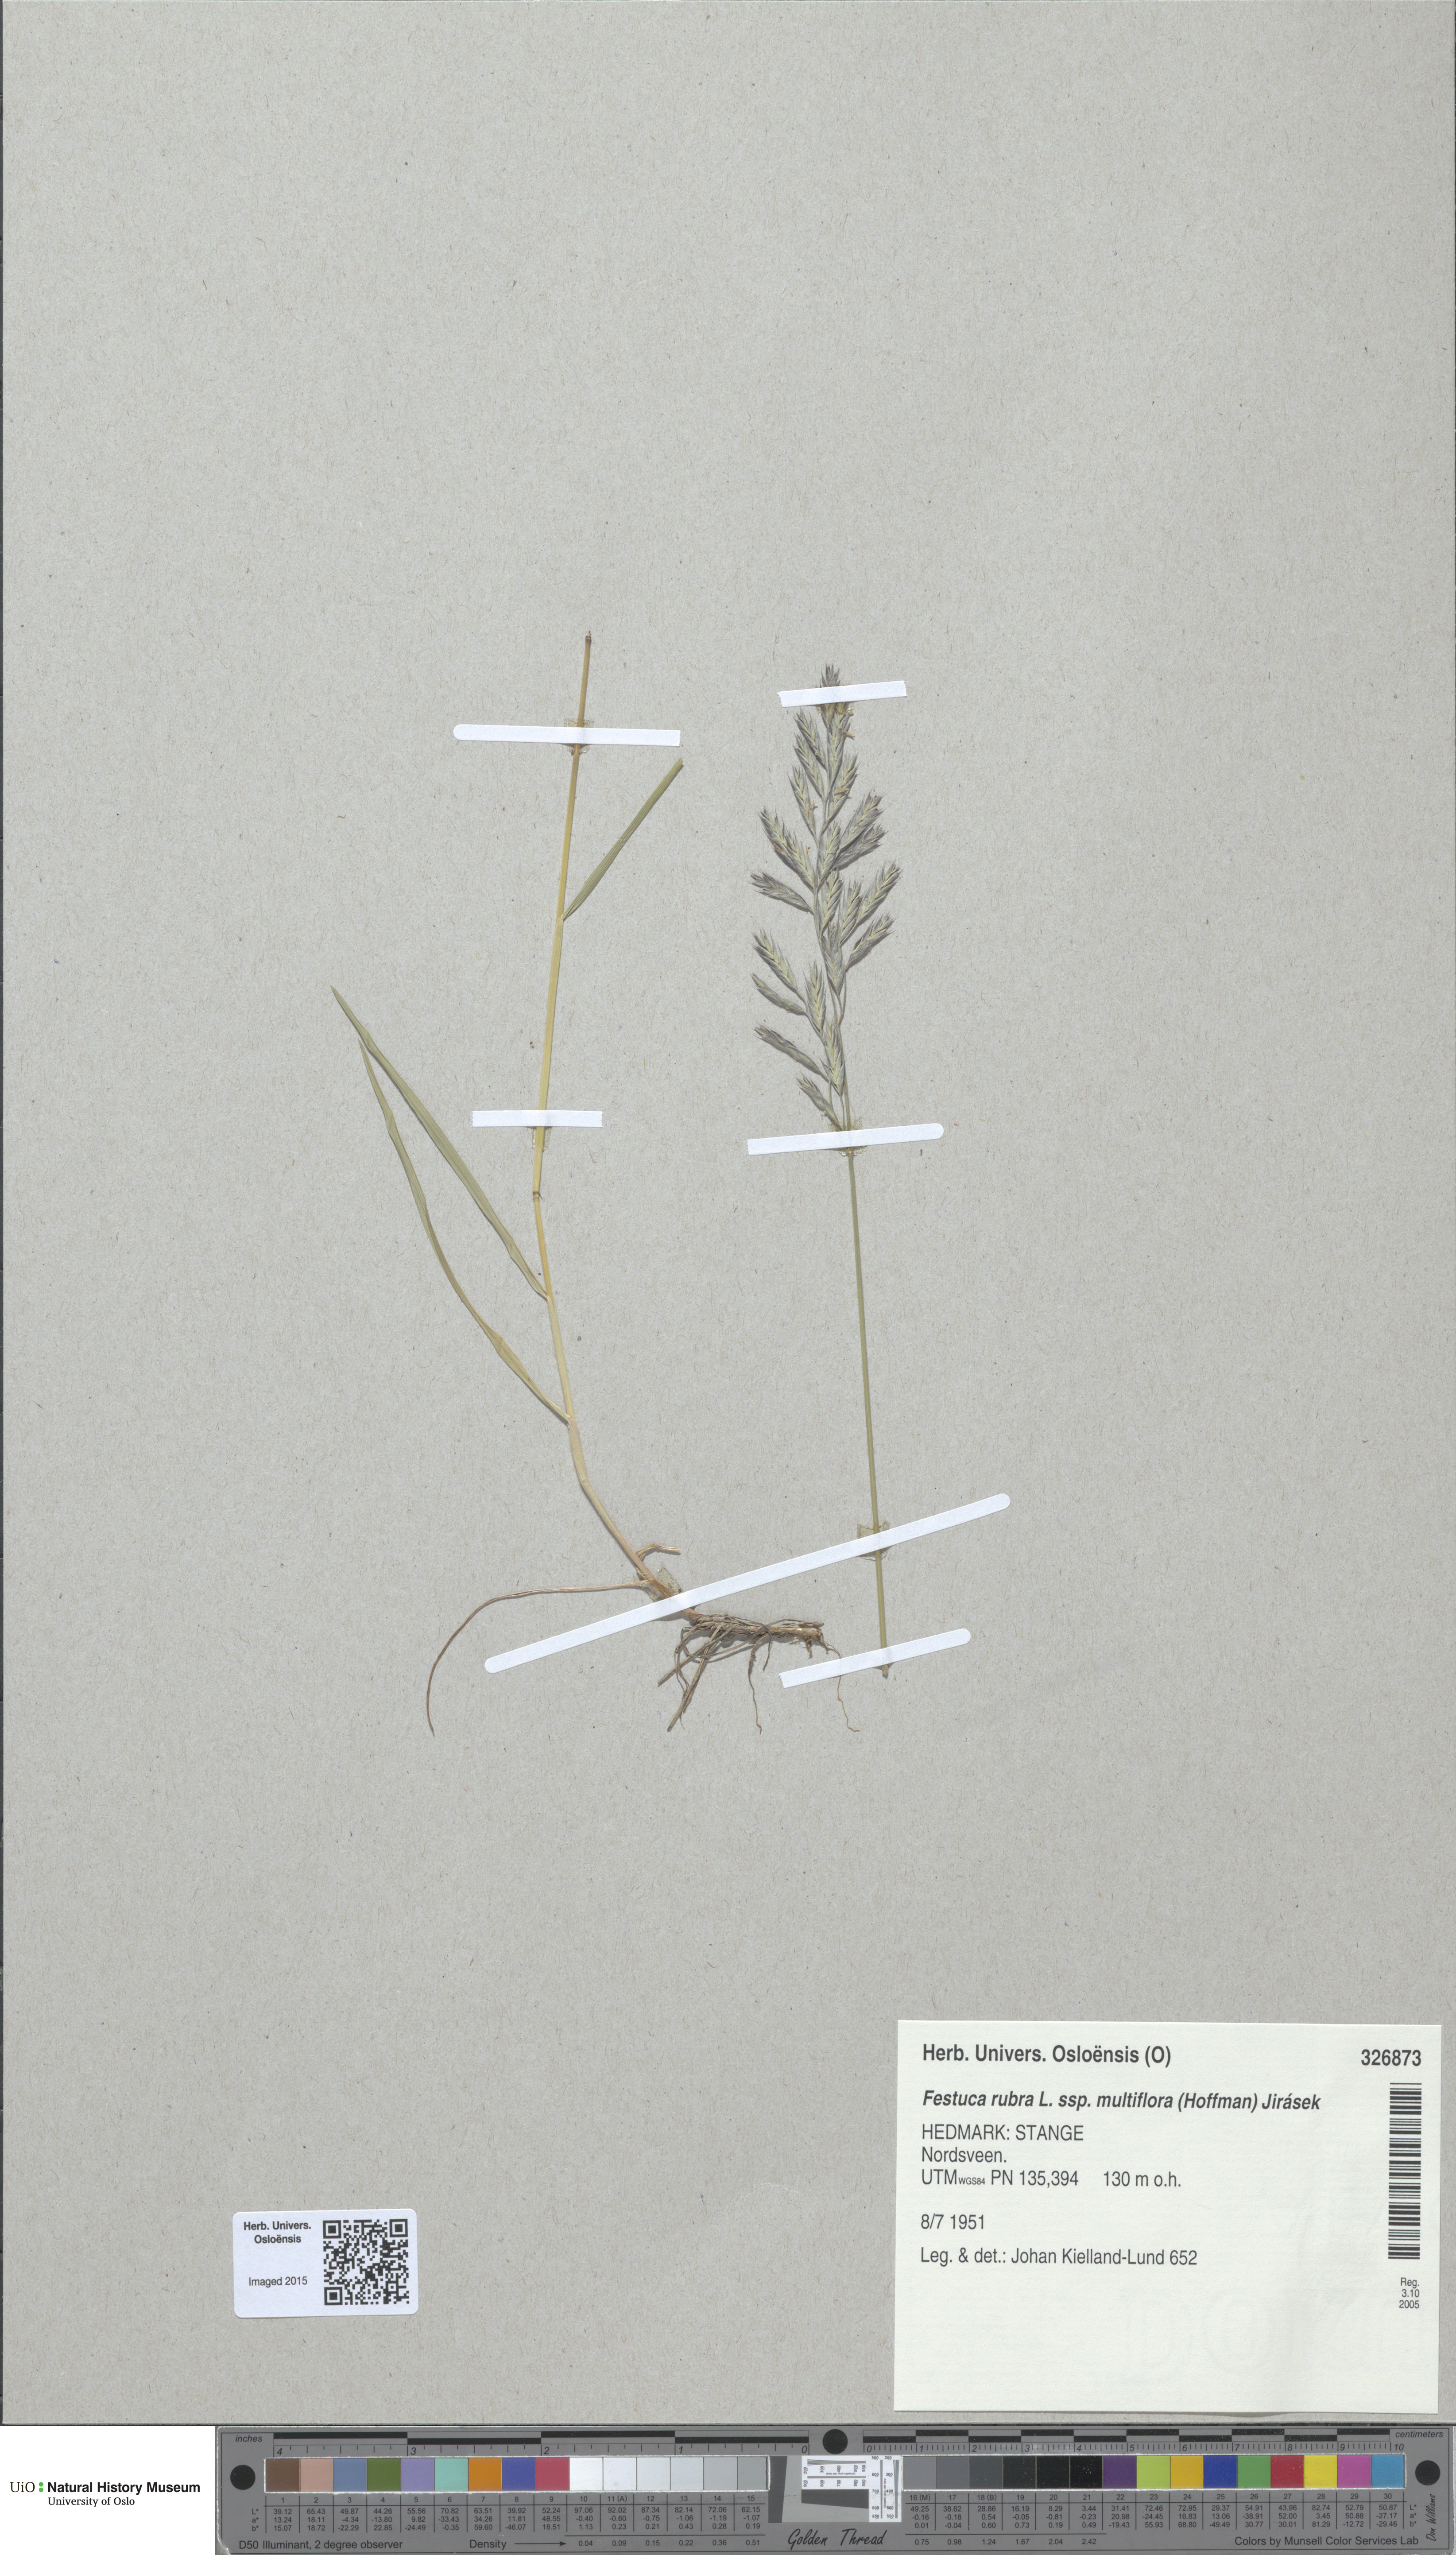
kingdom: Plantae
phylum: Tracheophyta
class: Liliopsida
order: Poales
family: Poaceae
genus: Festuca
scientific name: Festuca rubra
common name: Red fescue
